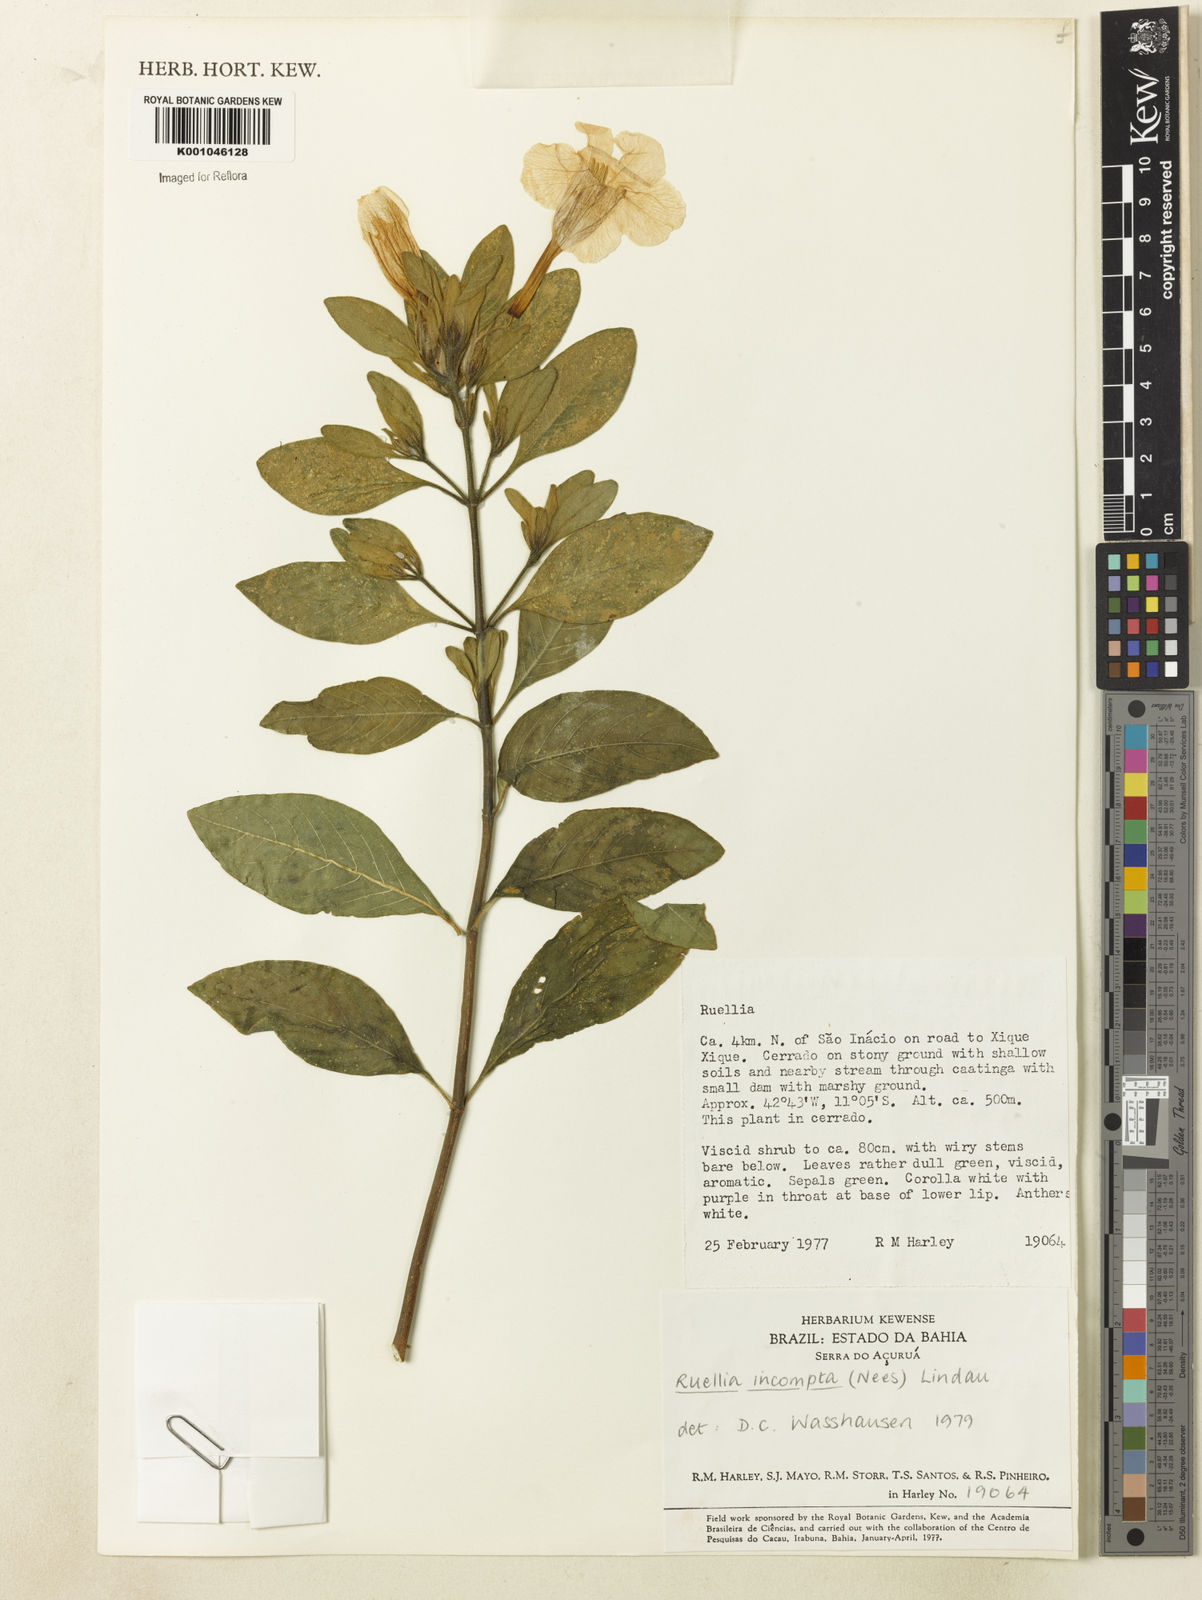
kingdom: Plantae
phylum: Tracheophyta
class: Magnoliopsida
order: Lamiales
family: Acanthaceae
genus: Ruellia
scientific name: Ruellia
